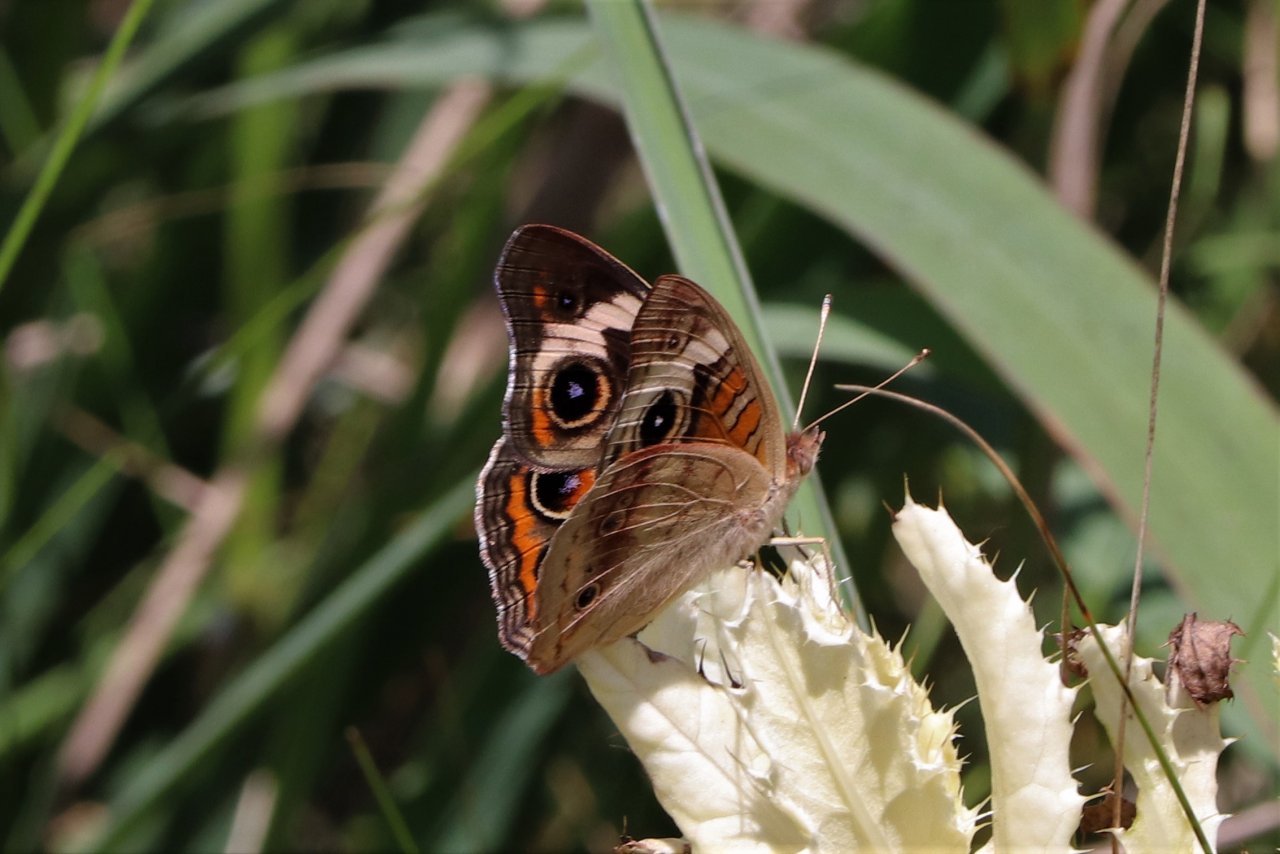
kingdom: Animalia
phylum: Arthropoda
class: Insecta
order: Lepidoptera
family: Nymphalidae
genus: Junonia
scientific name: Junonia coenia
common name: Common Buckeye
